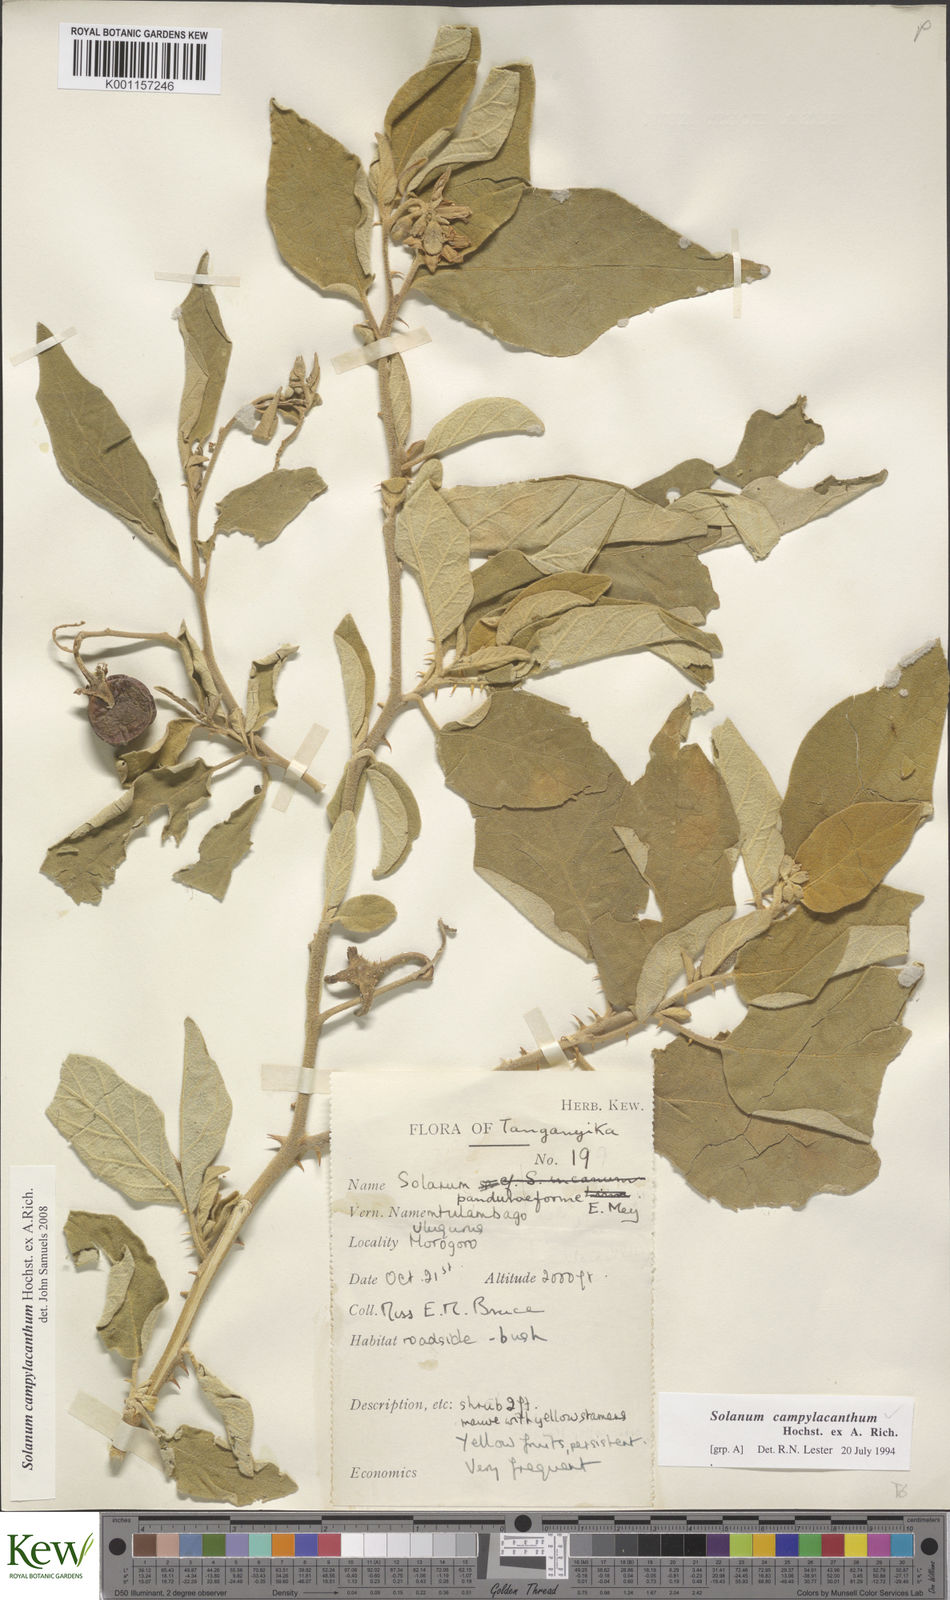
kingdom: Plantae
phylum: Tracheophyta
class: Magnoliopsida
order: Solanales
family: Solanaceae
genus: Solanum
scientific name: Solanum campylacanthum
